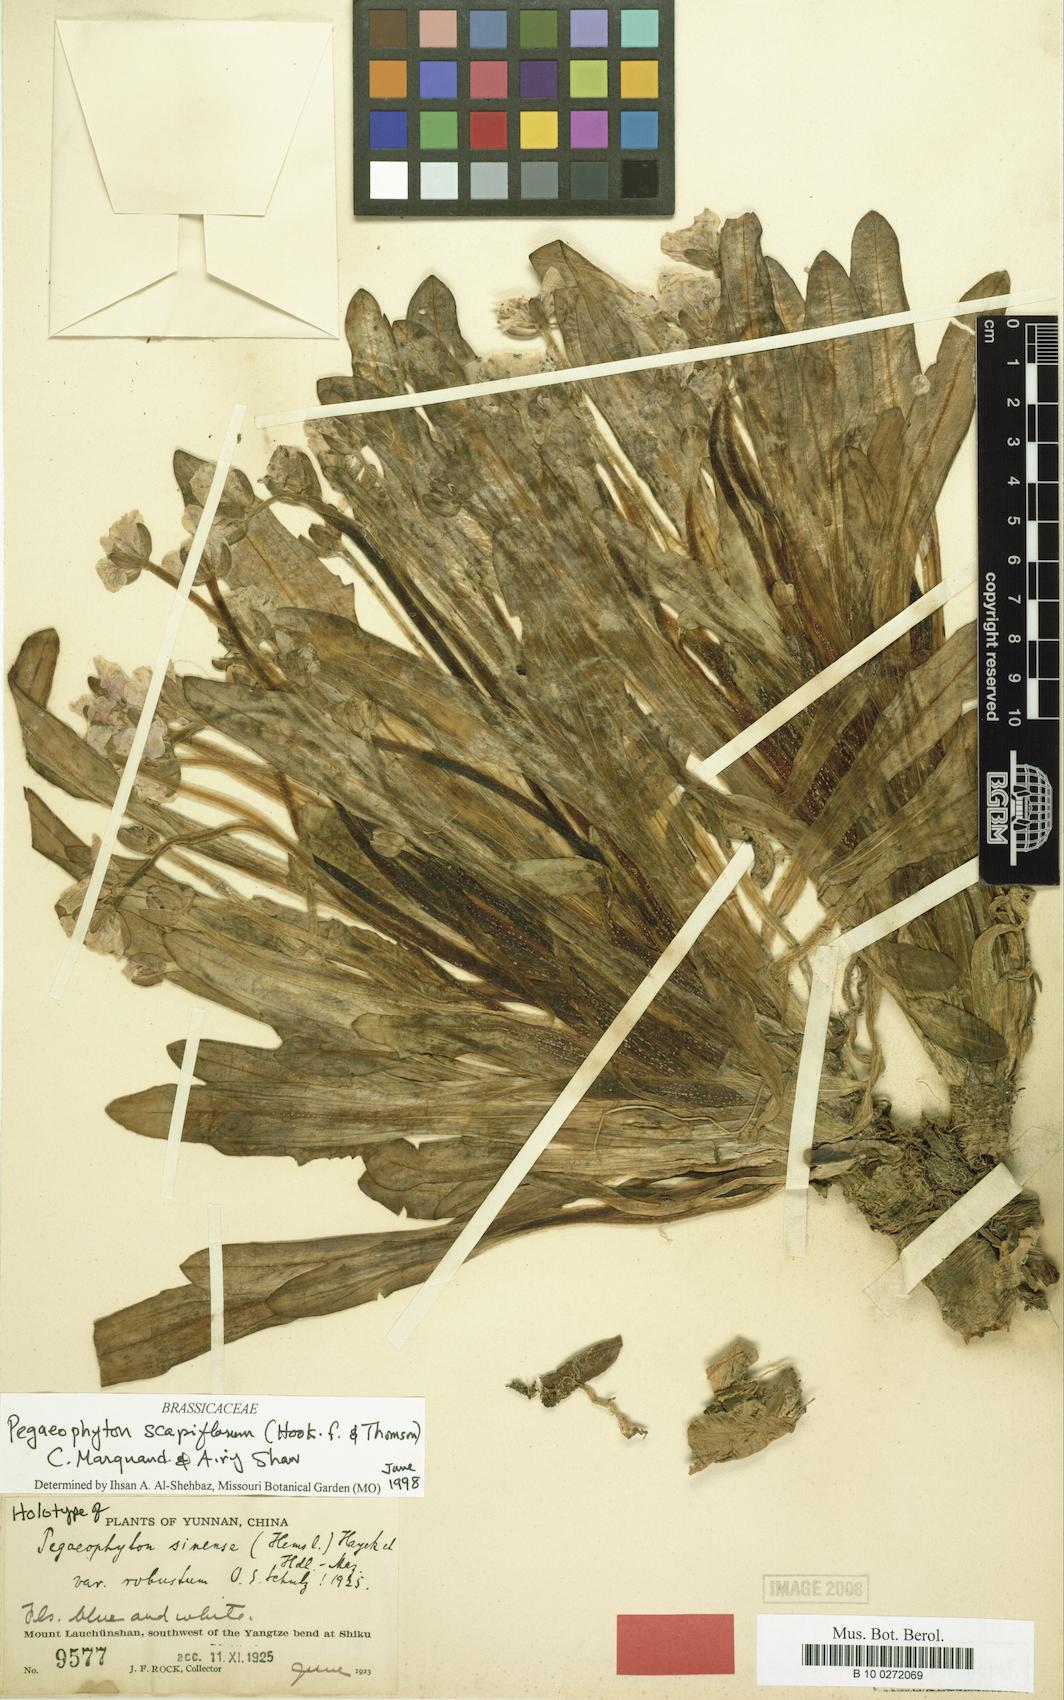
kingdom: Plantae
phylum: Tracheophyta
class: Magnoliopsida
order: Brassicales
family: Brassicaceae
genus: Eutrema
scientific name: Eutrema scapiflorum
